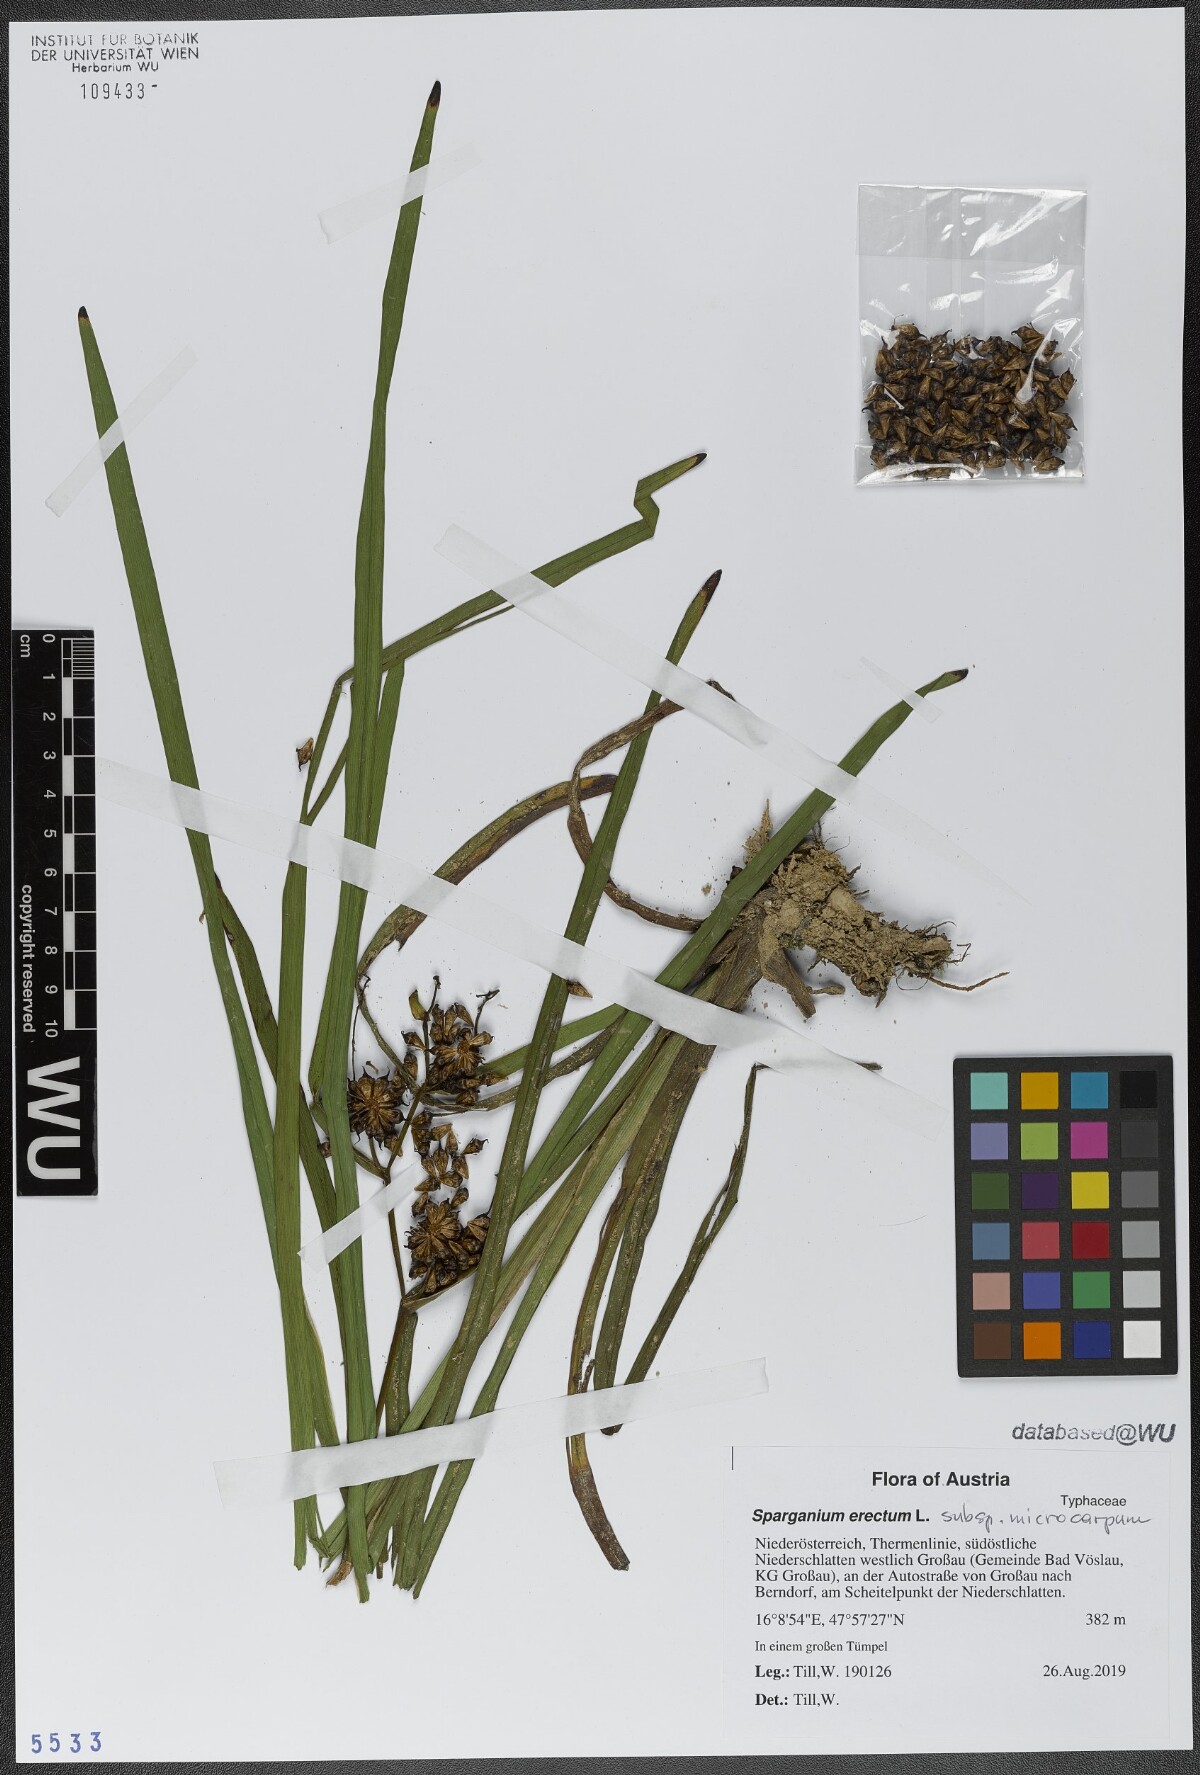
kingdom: Plantae
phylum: Tracheophyta
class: Liliopsida
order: Poales
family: Typhaceae
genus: Sparganium
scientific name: Sparganium erectum
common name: Branched bur-reed
